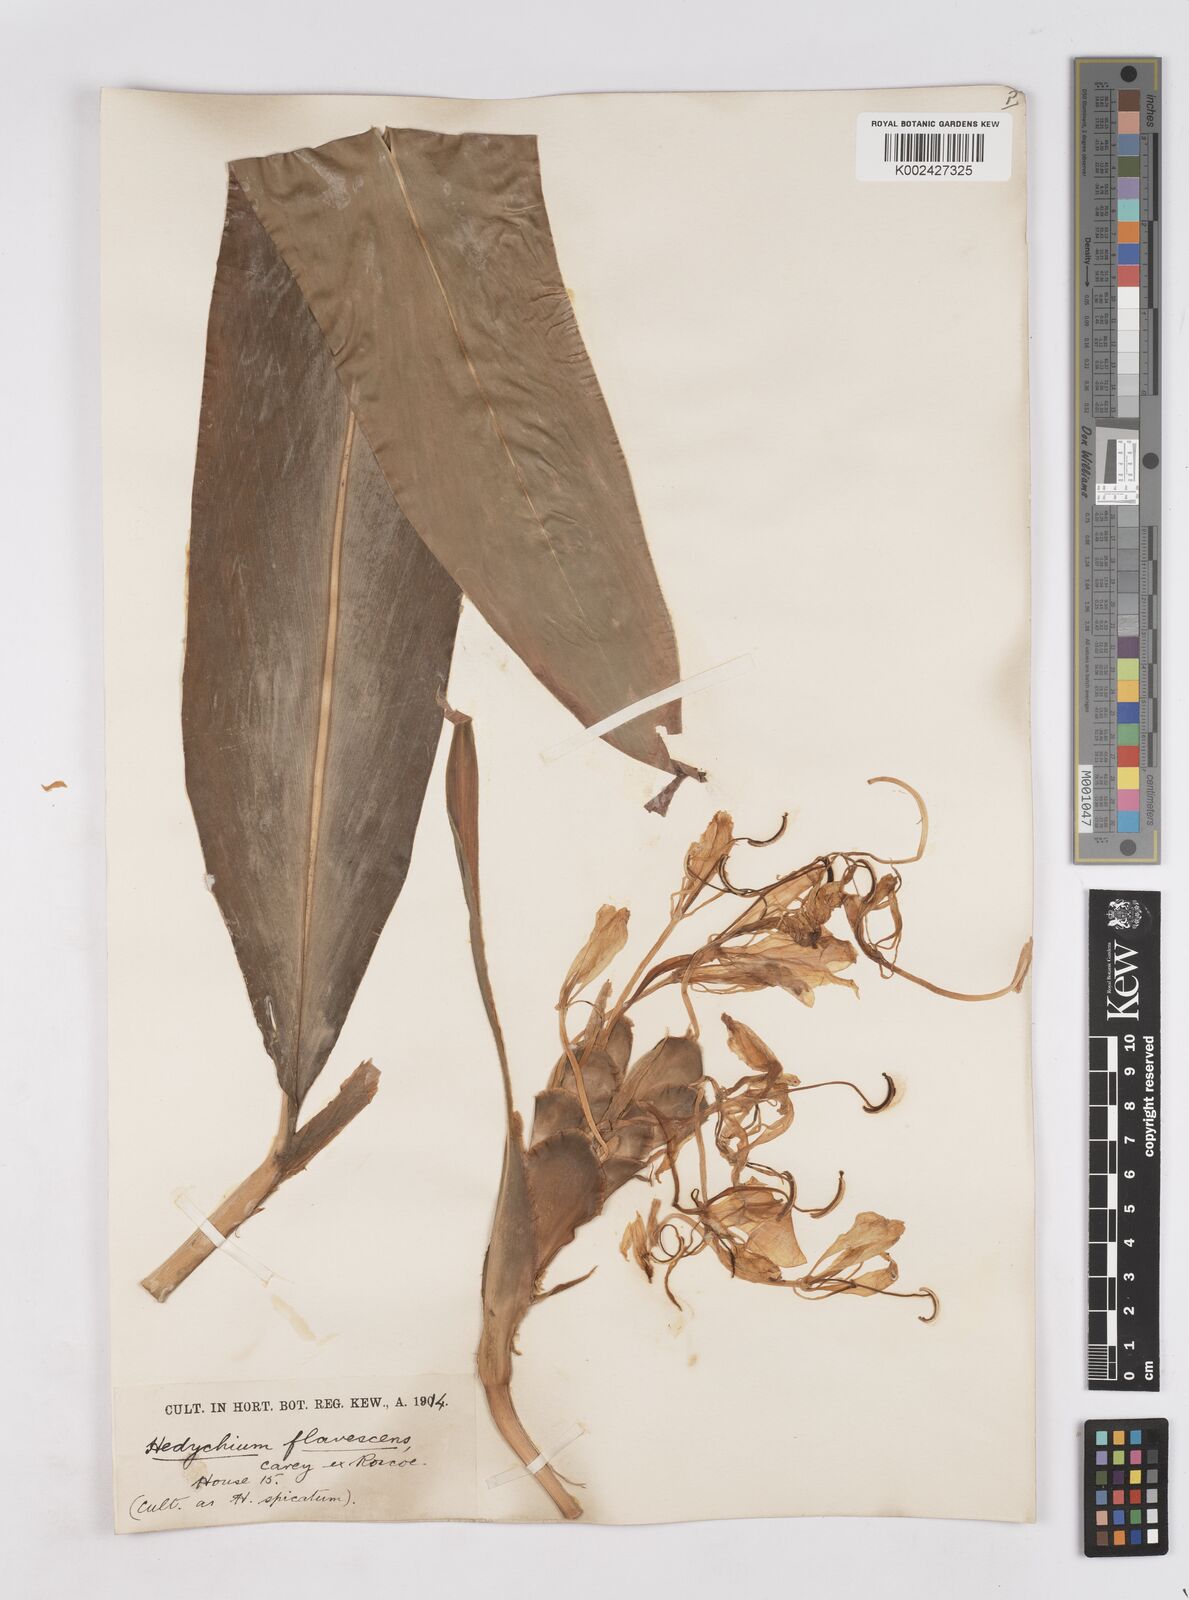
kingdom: Plantae
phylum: Tracheophyta
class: Liliopsida
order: Zingiberales
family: Zingiberaceae
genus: Hedychium
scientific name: Hedychium flavescens
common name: Yellow ginger
